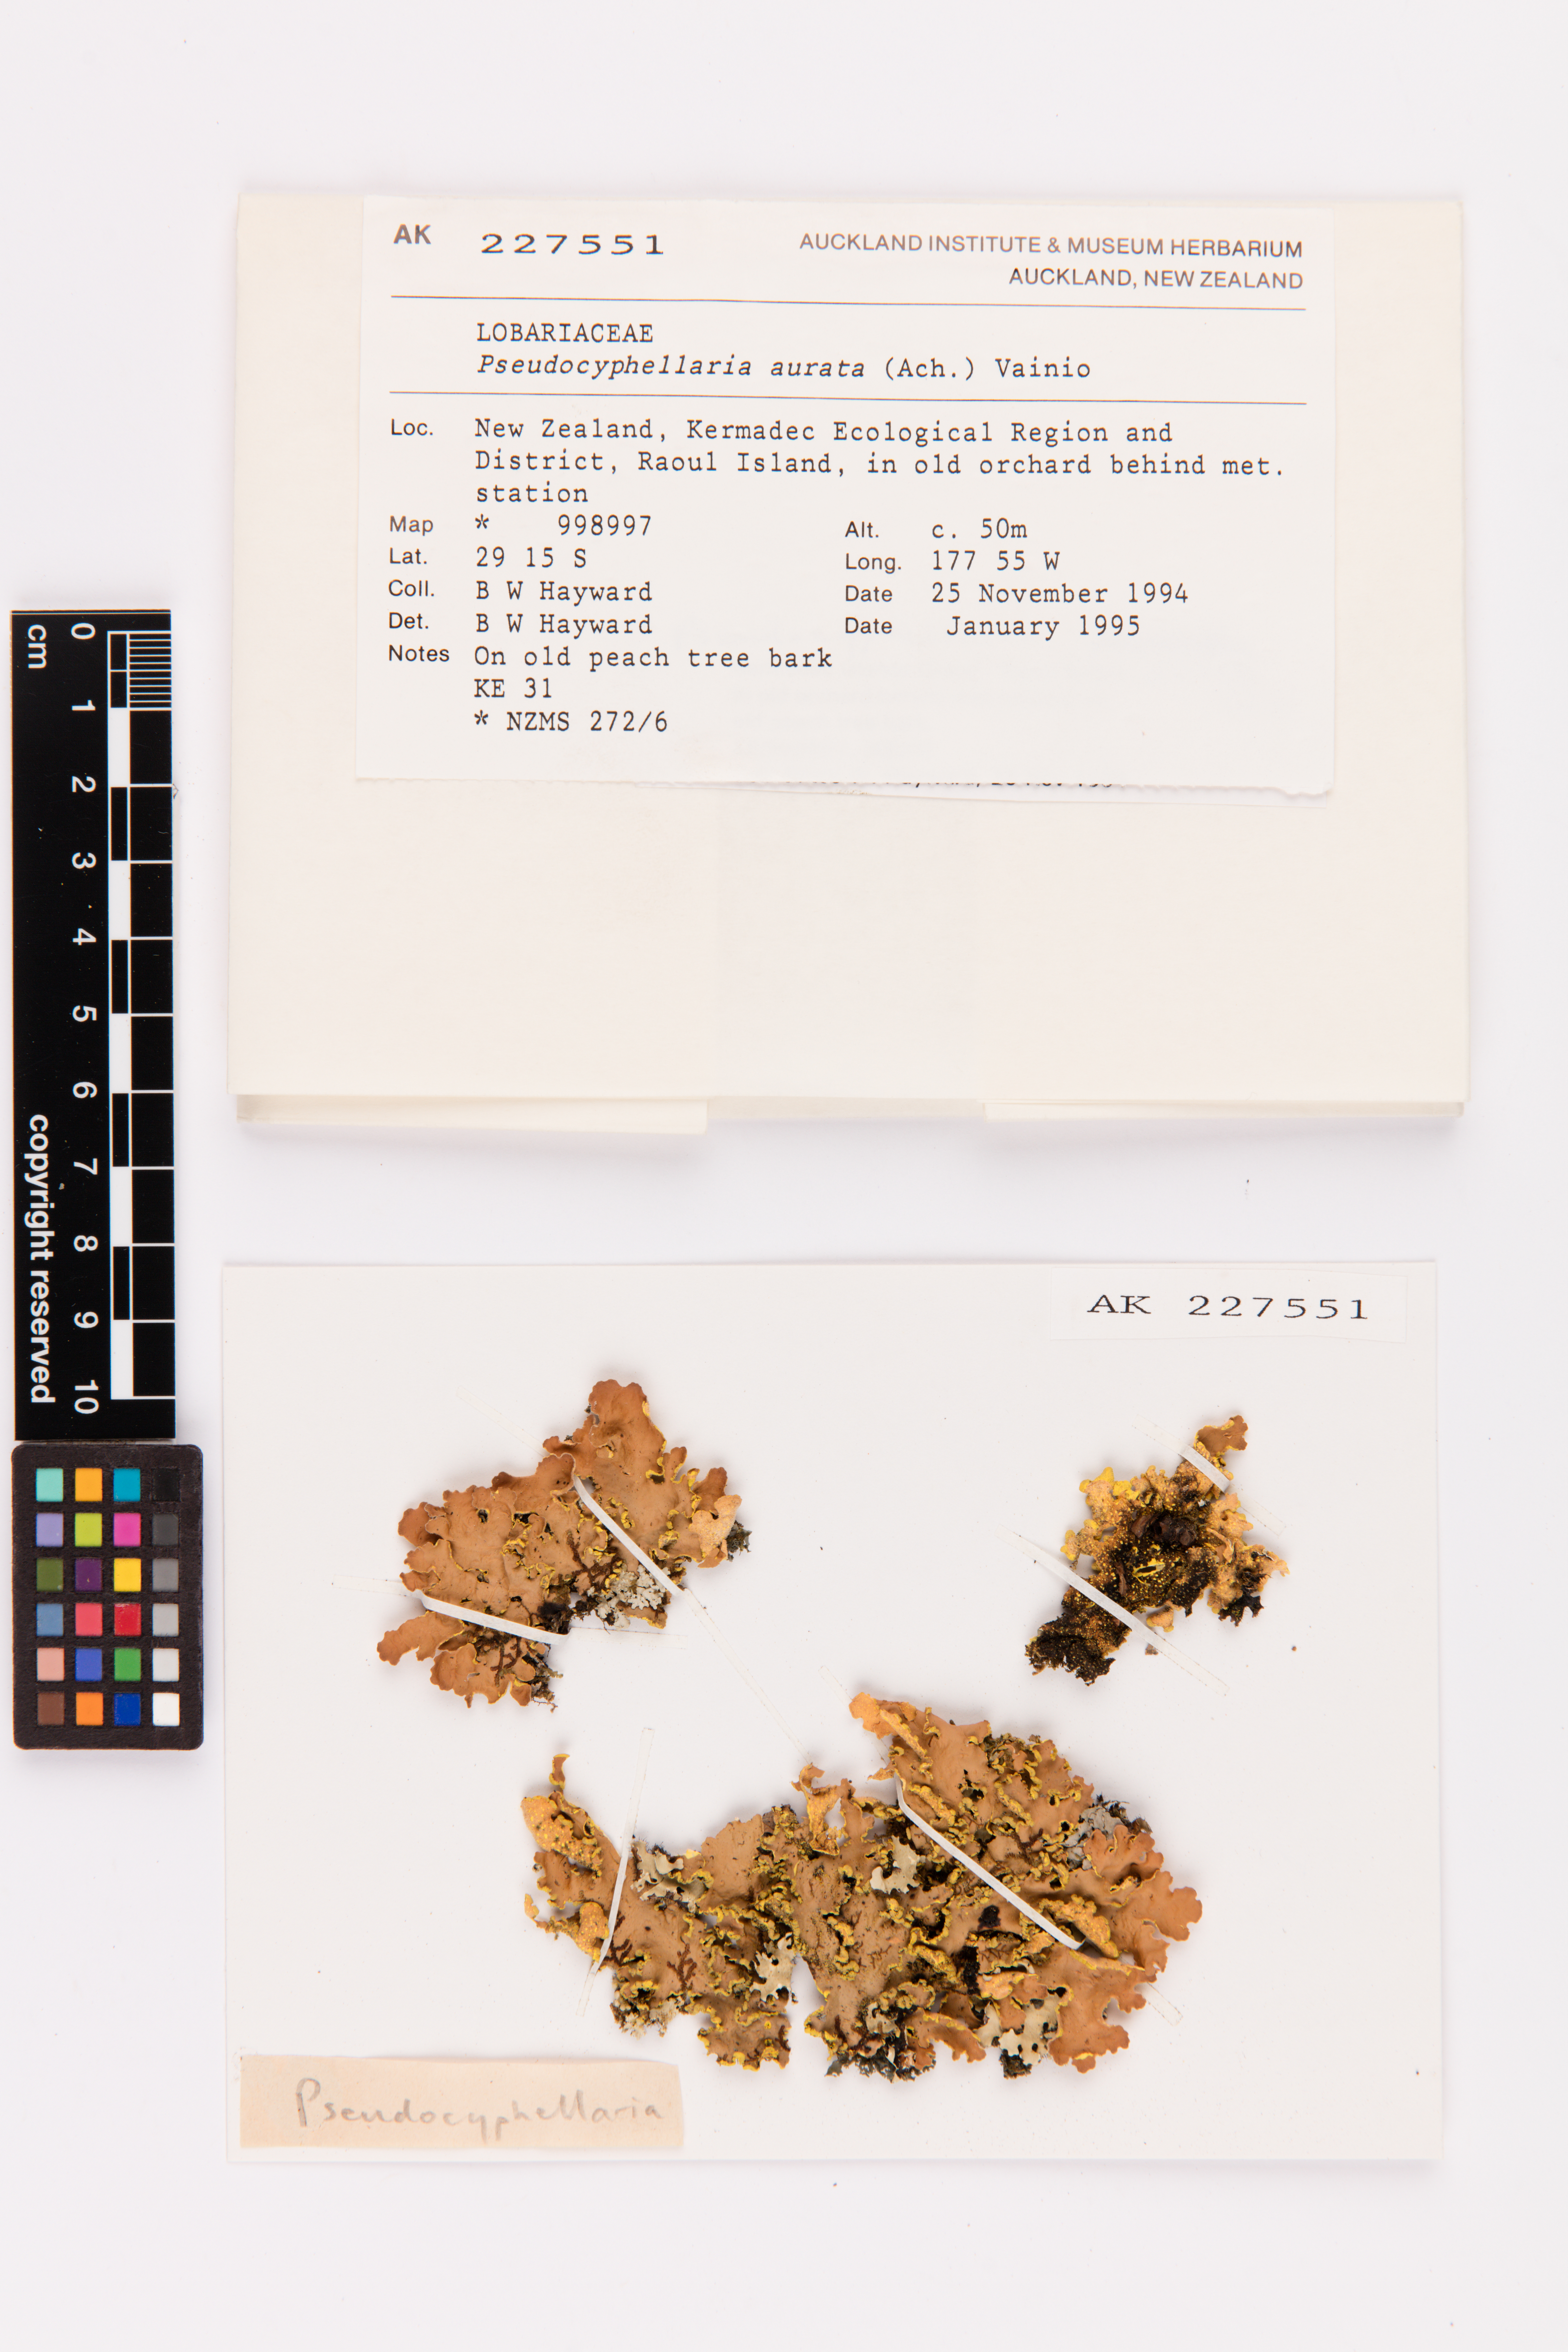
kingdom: Fungi
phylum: Ascomycota
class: Lecanoromycetes
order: Peltigerales
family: Lobariaceae
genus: Pseudocyphellaria
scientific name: Pseudocyphellaria aurata
